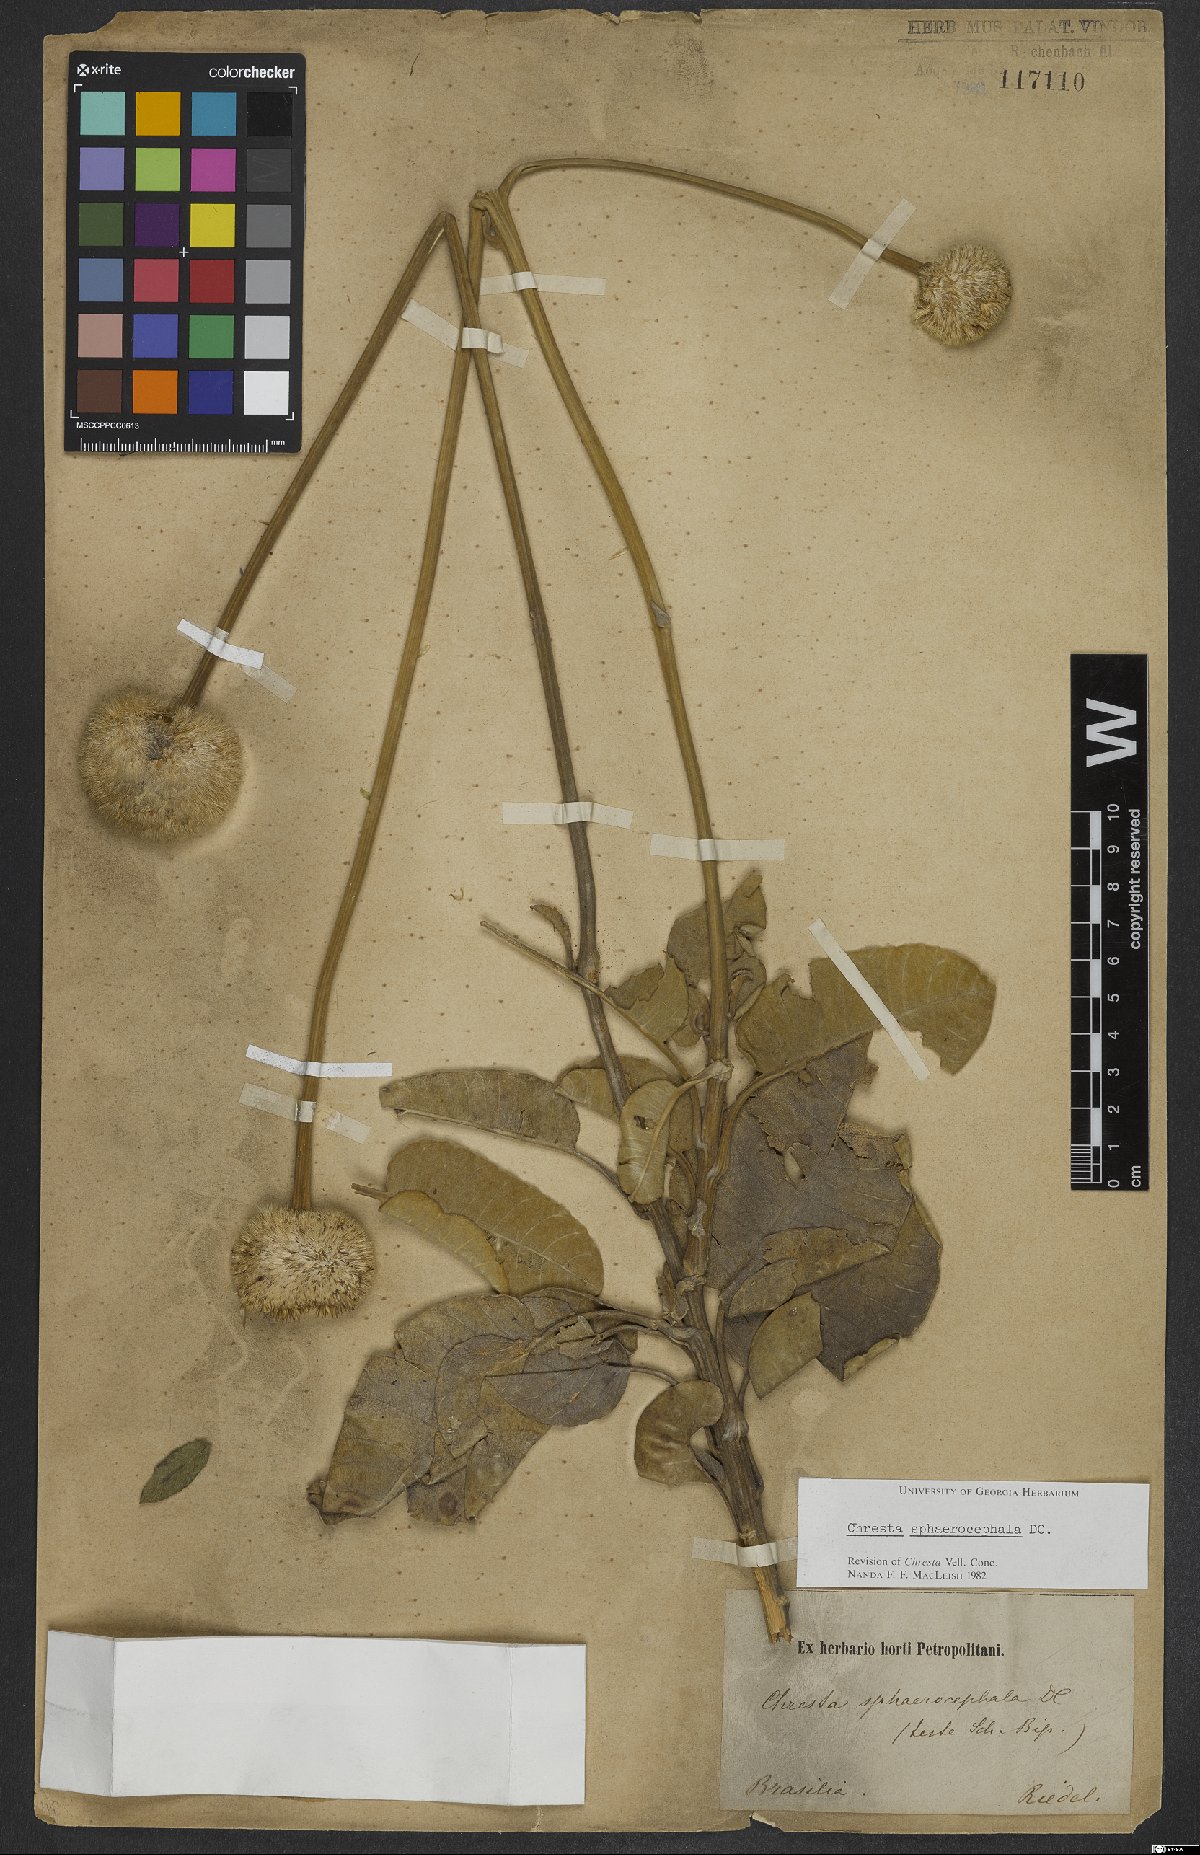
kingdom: Plantae
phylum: Tracheophyta
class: Magnoliopsida
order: Asterales
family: Asteraceae
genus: Chresta
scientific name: Chresta sphaerocephala
